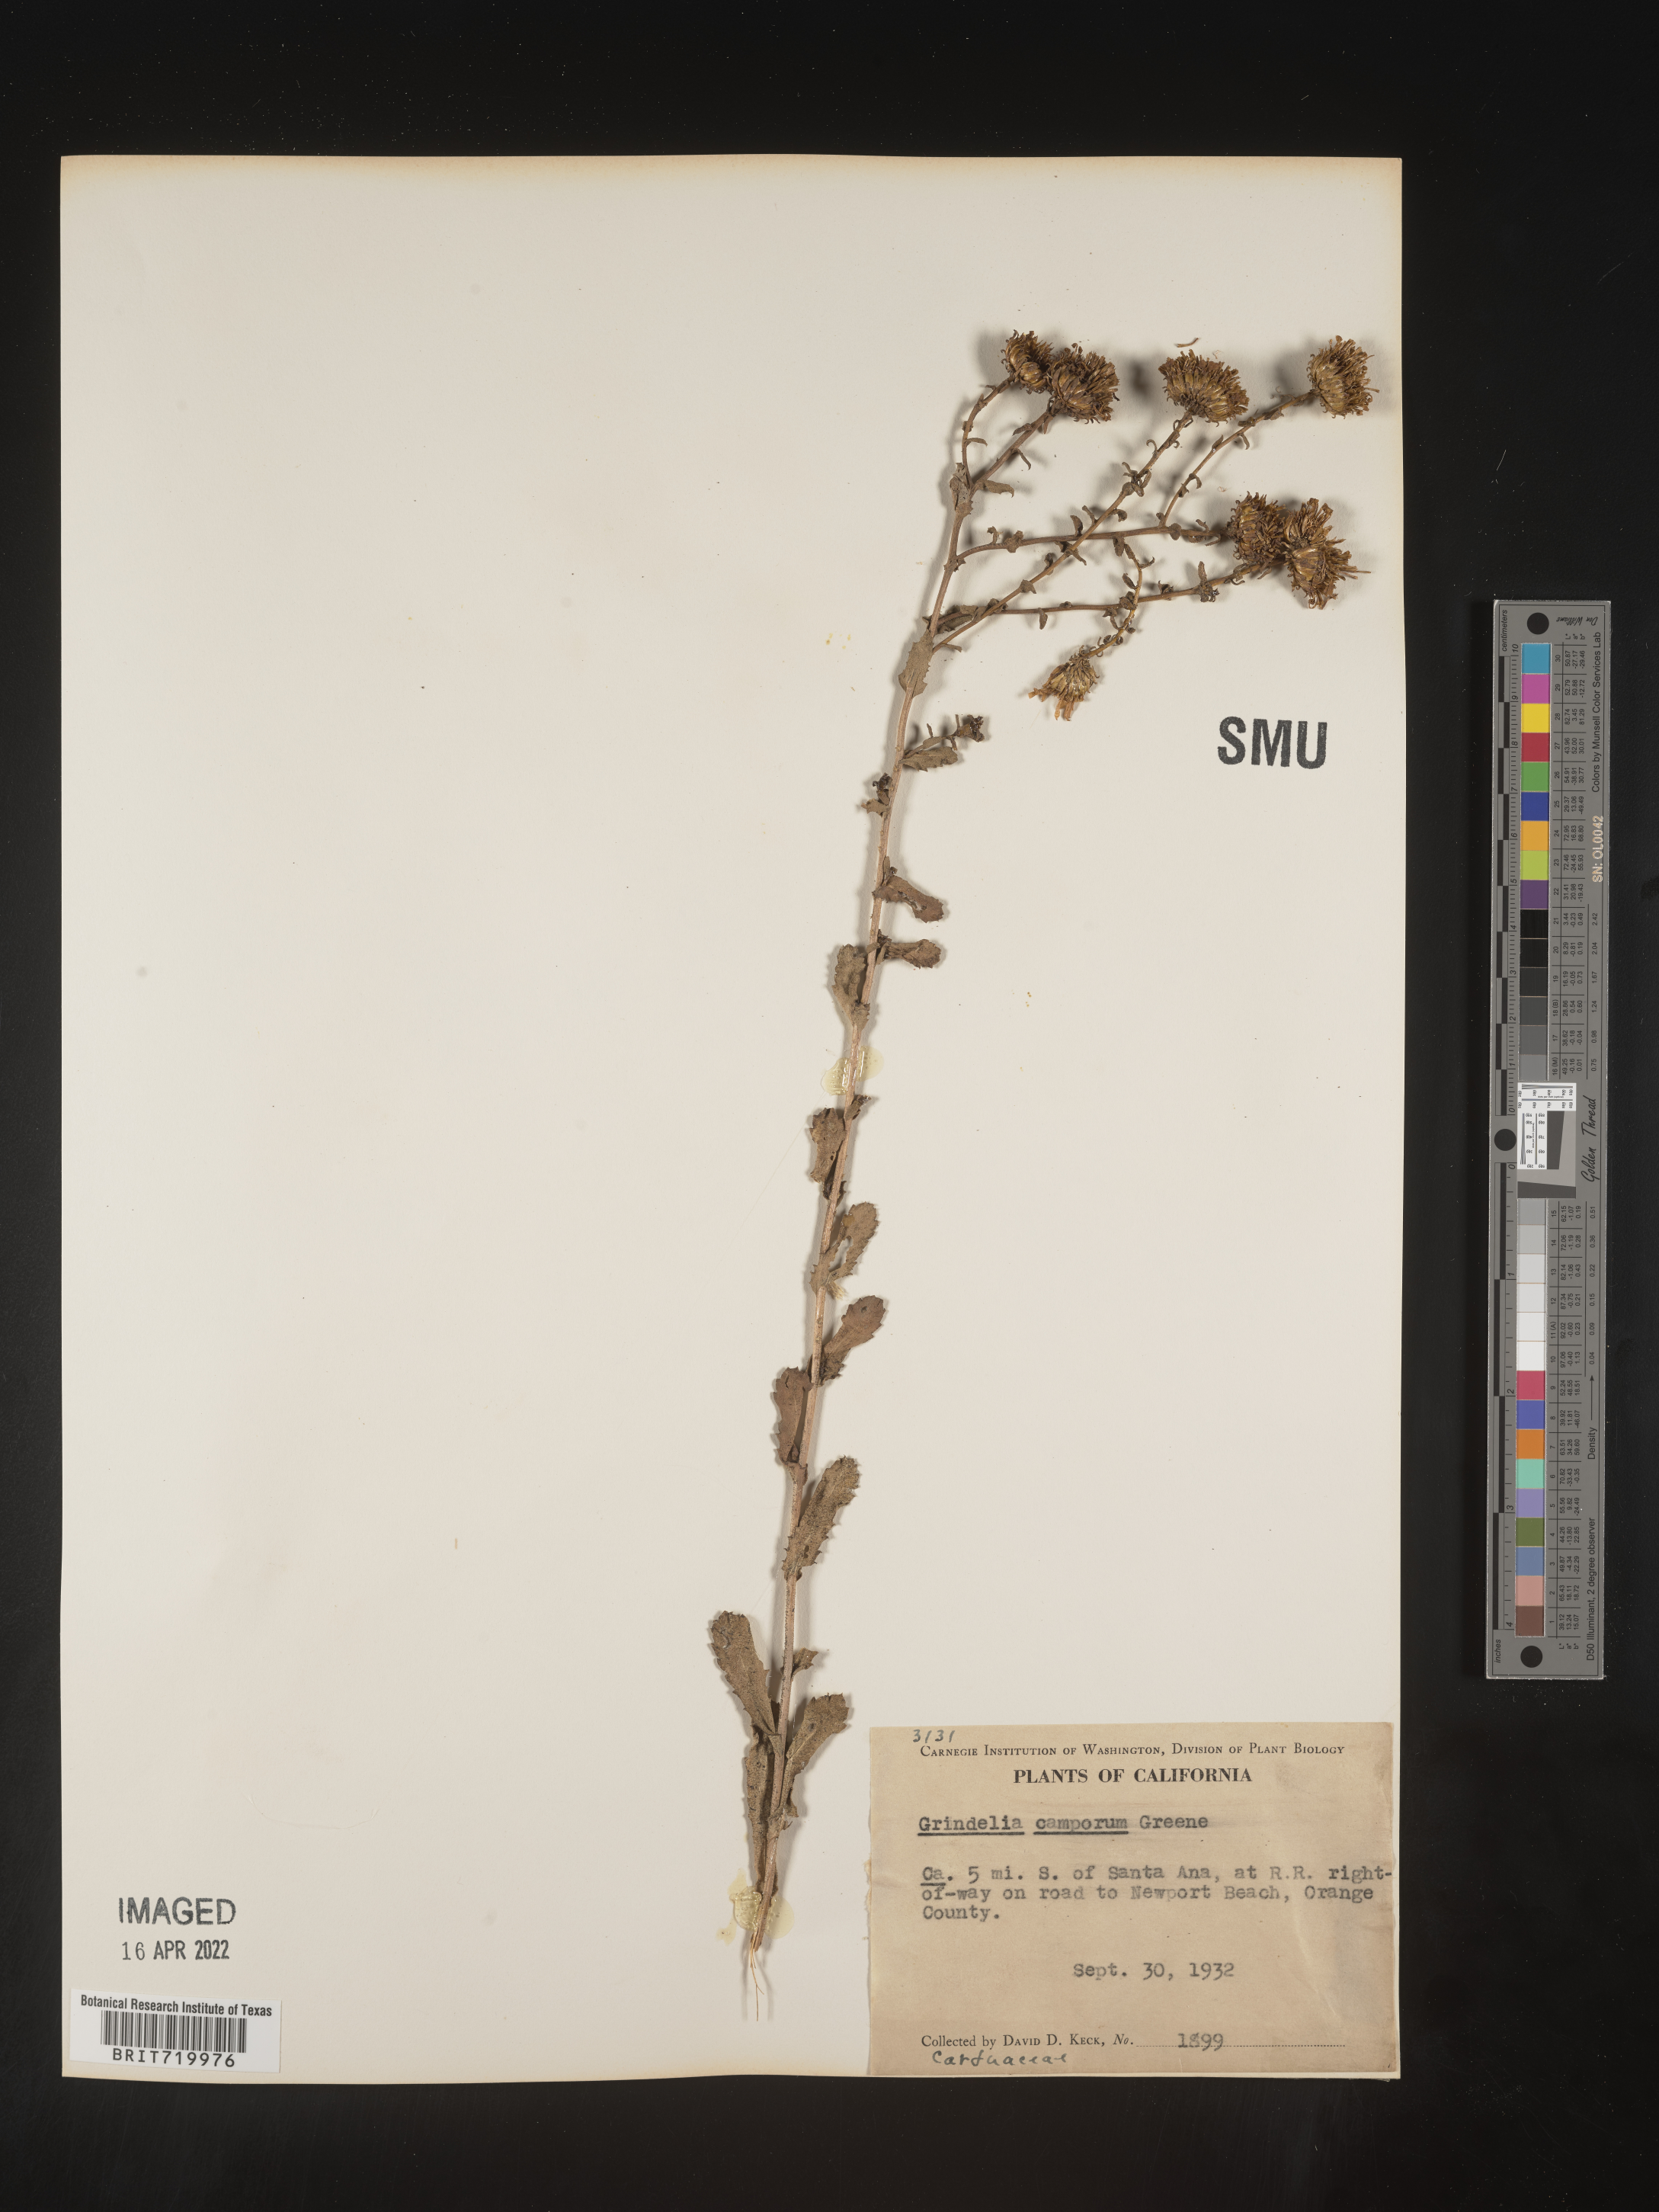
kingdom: Plantae
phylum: Tracheophyta
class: Magnoliopsida
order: Asterales
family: Asteraceae
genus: Grindelia
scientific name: Grindelia hirsutula
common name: Hairy gumweed
